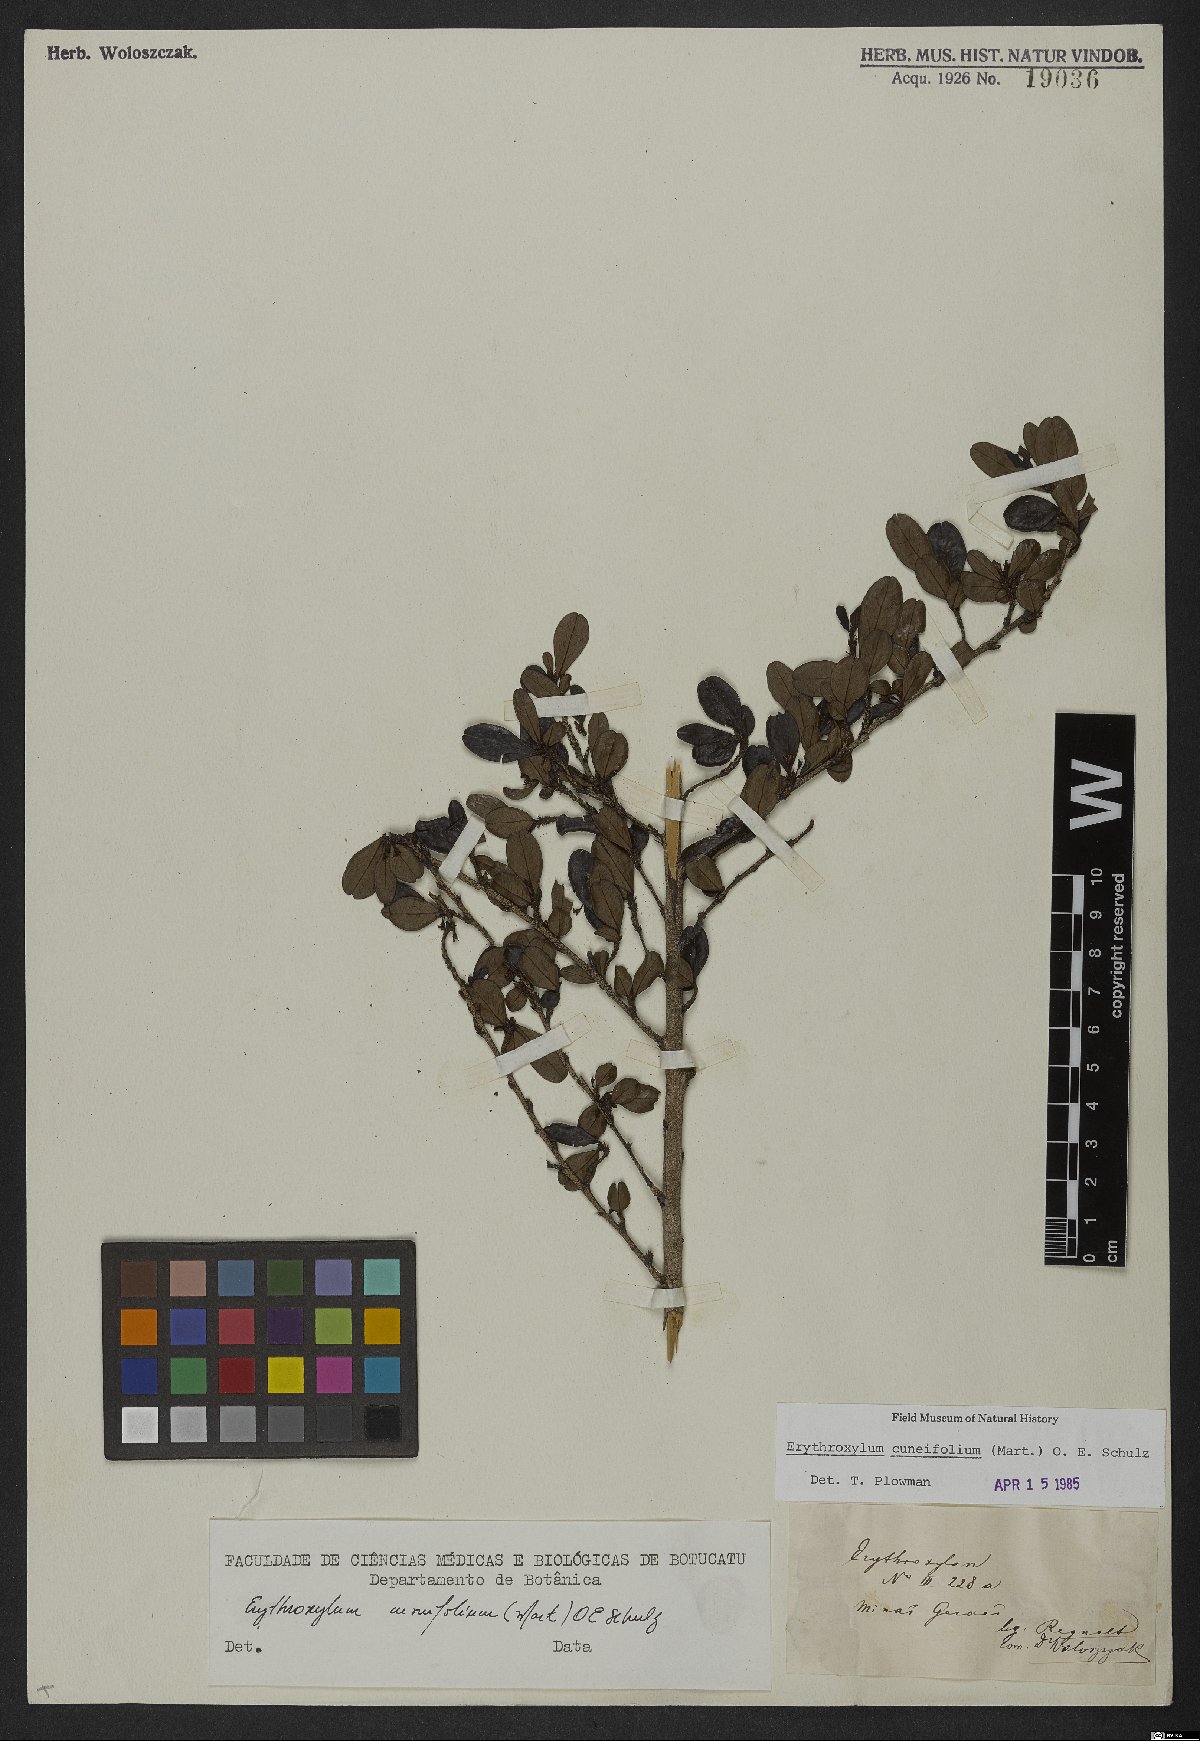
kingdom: Plantae
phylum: Tracheophyta
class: Magnoliopsida
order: Malpighiales
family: Erythroxylaceae
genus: Erythroxylum
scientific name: Erythroxylum cuneifolium
